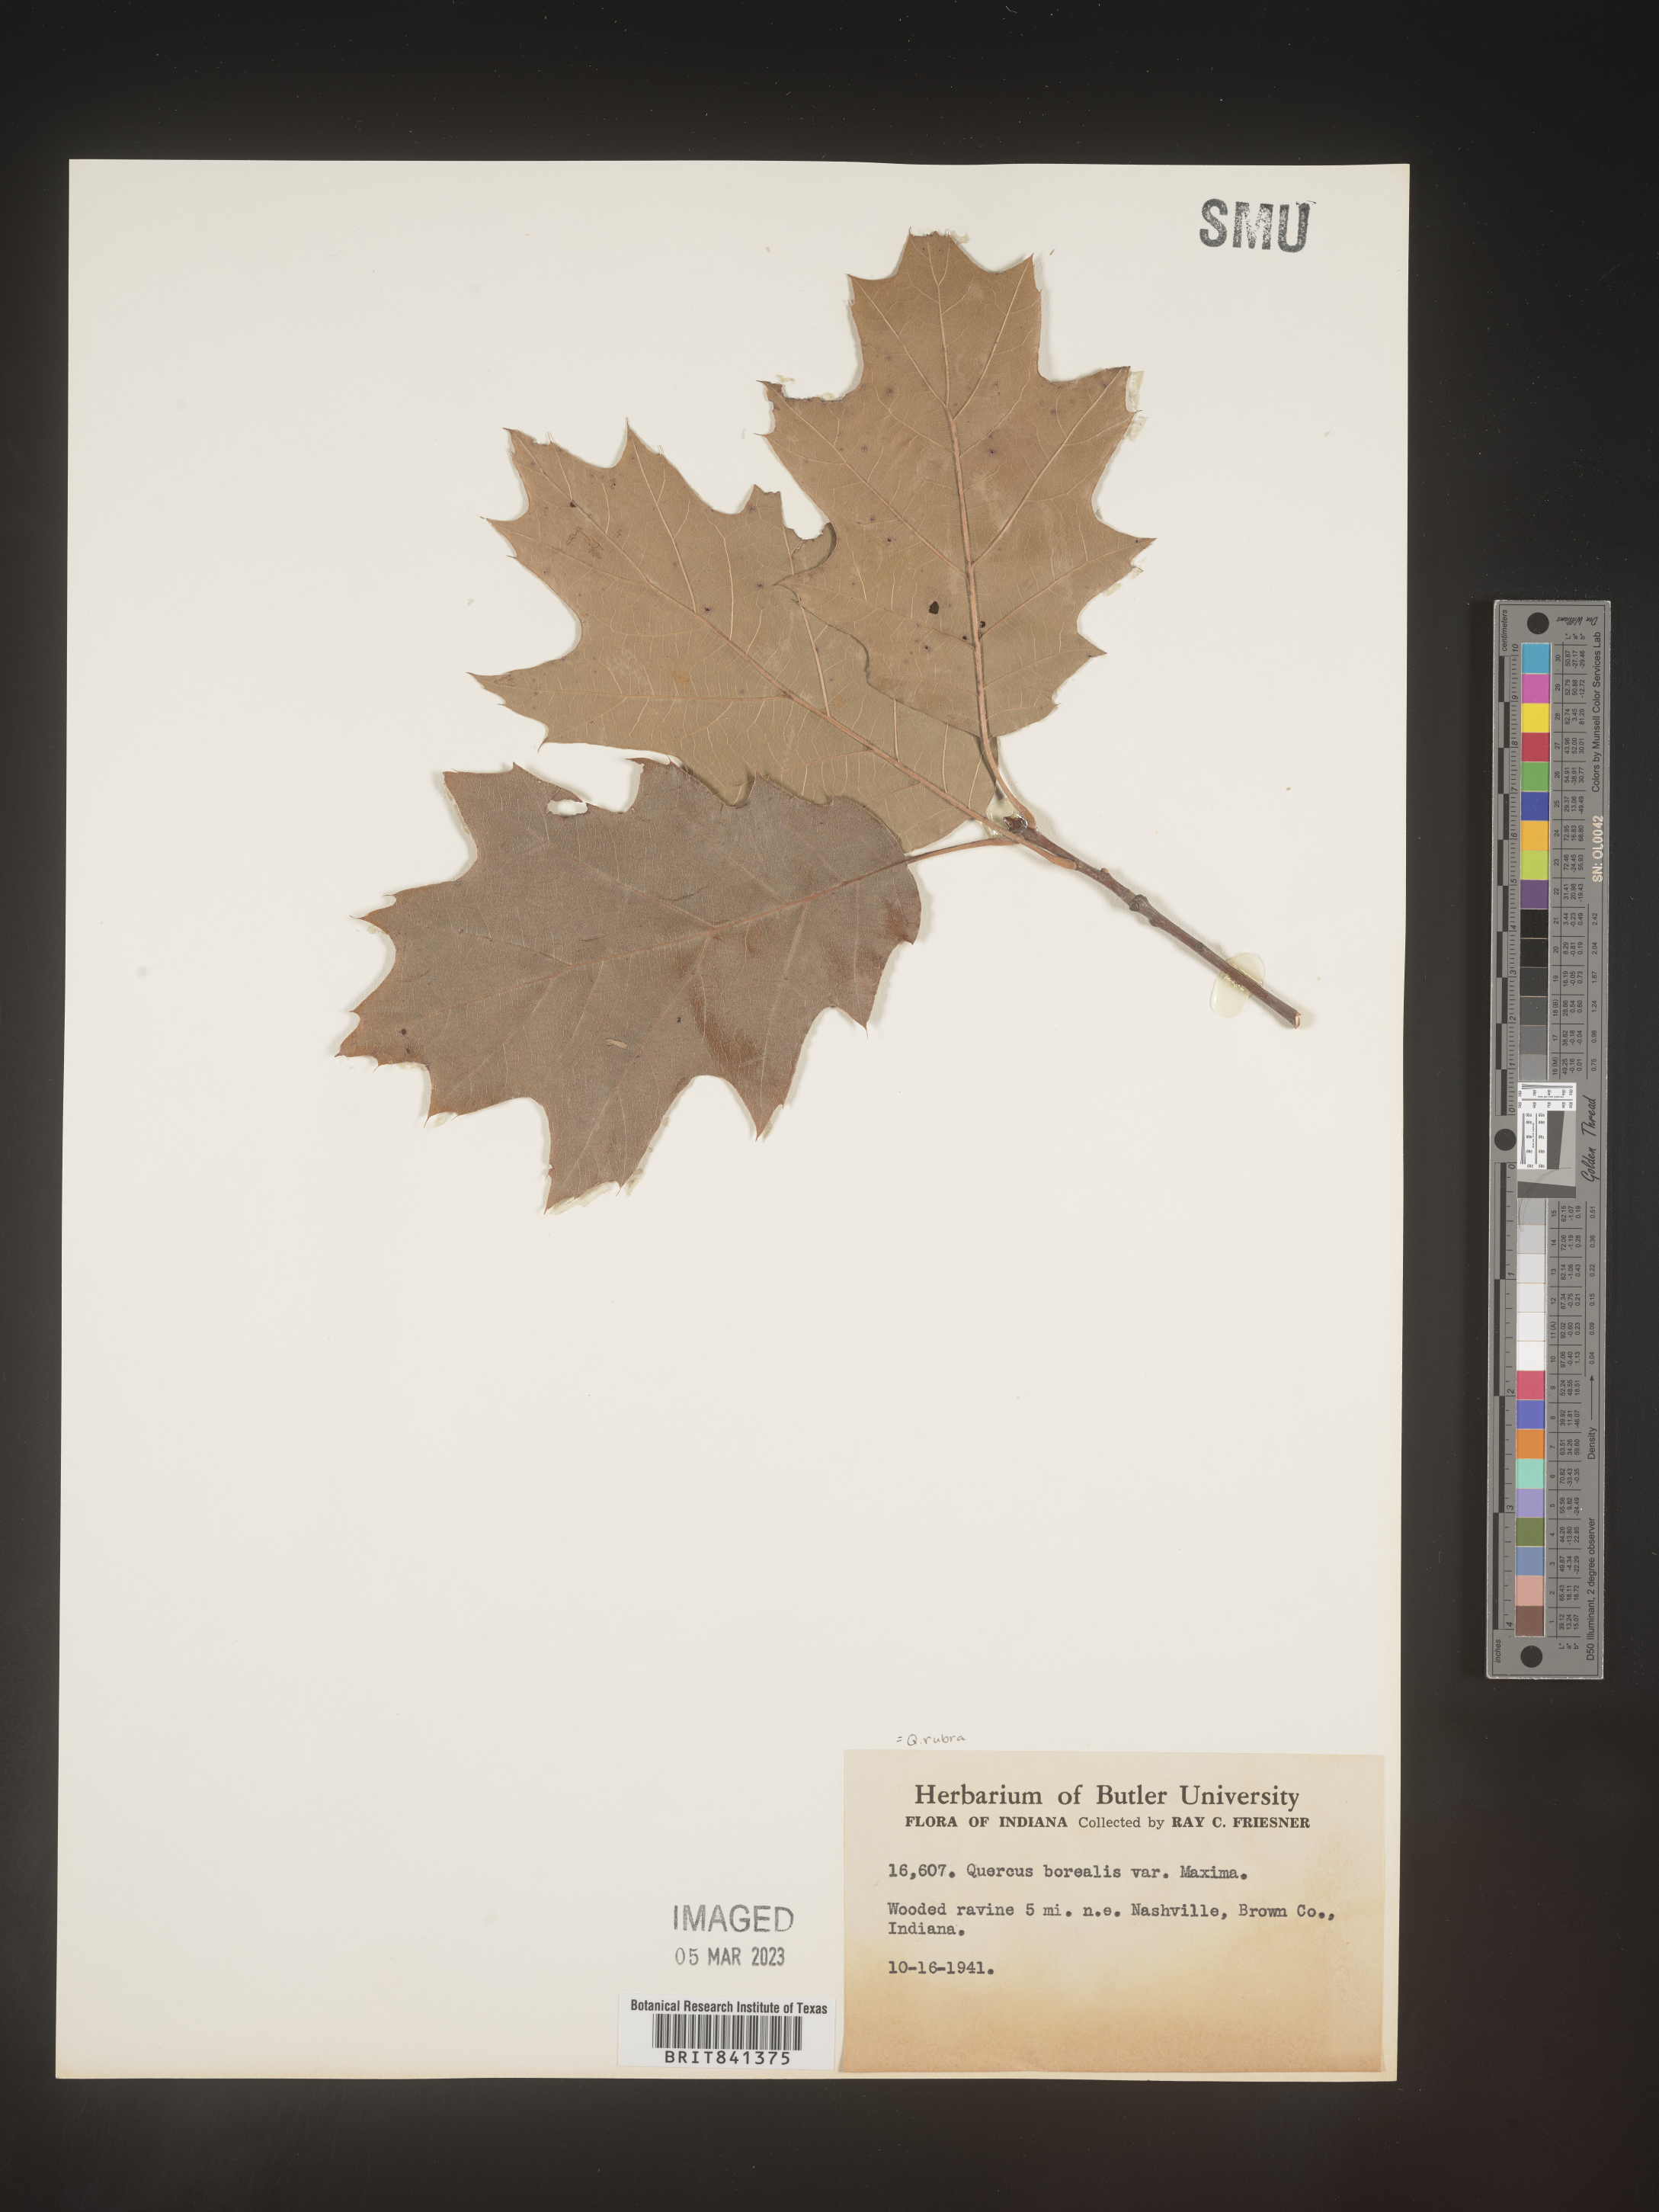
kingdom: Plantae
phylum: Tracheophyta
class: Magnoliopsida
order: Fagales
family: Fagaceae
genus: Quercus
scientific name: Quercus rubra
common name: Red oak
